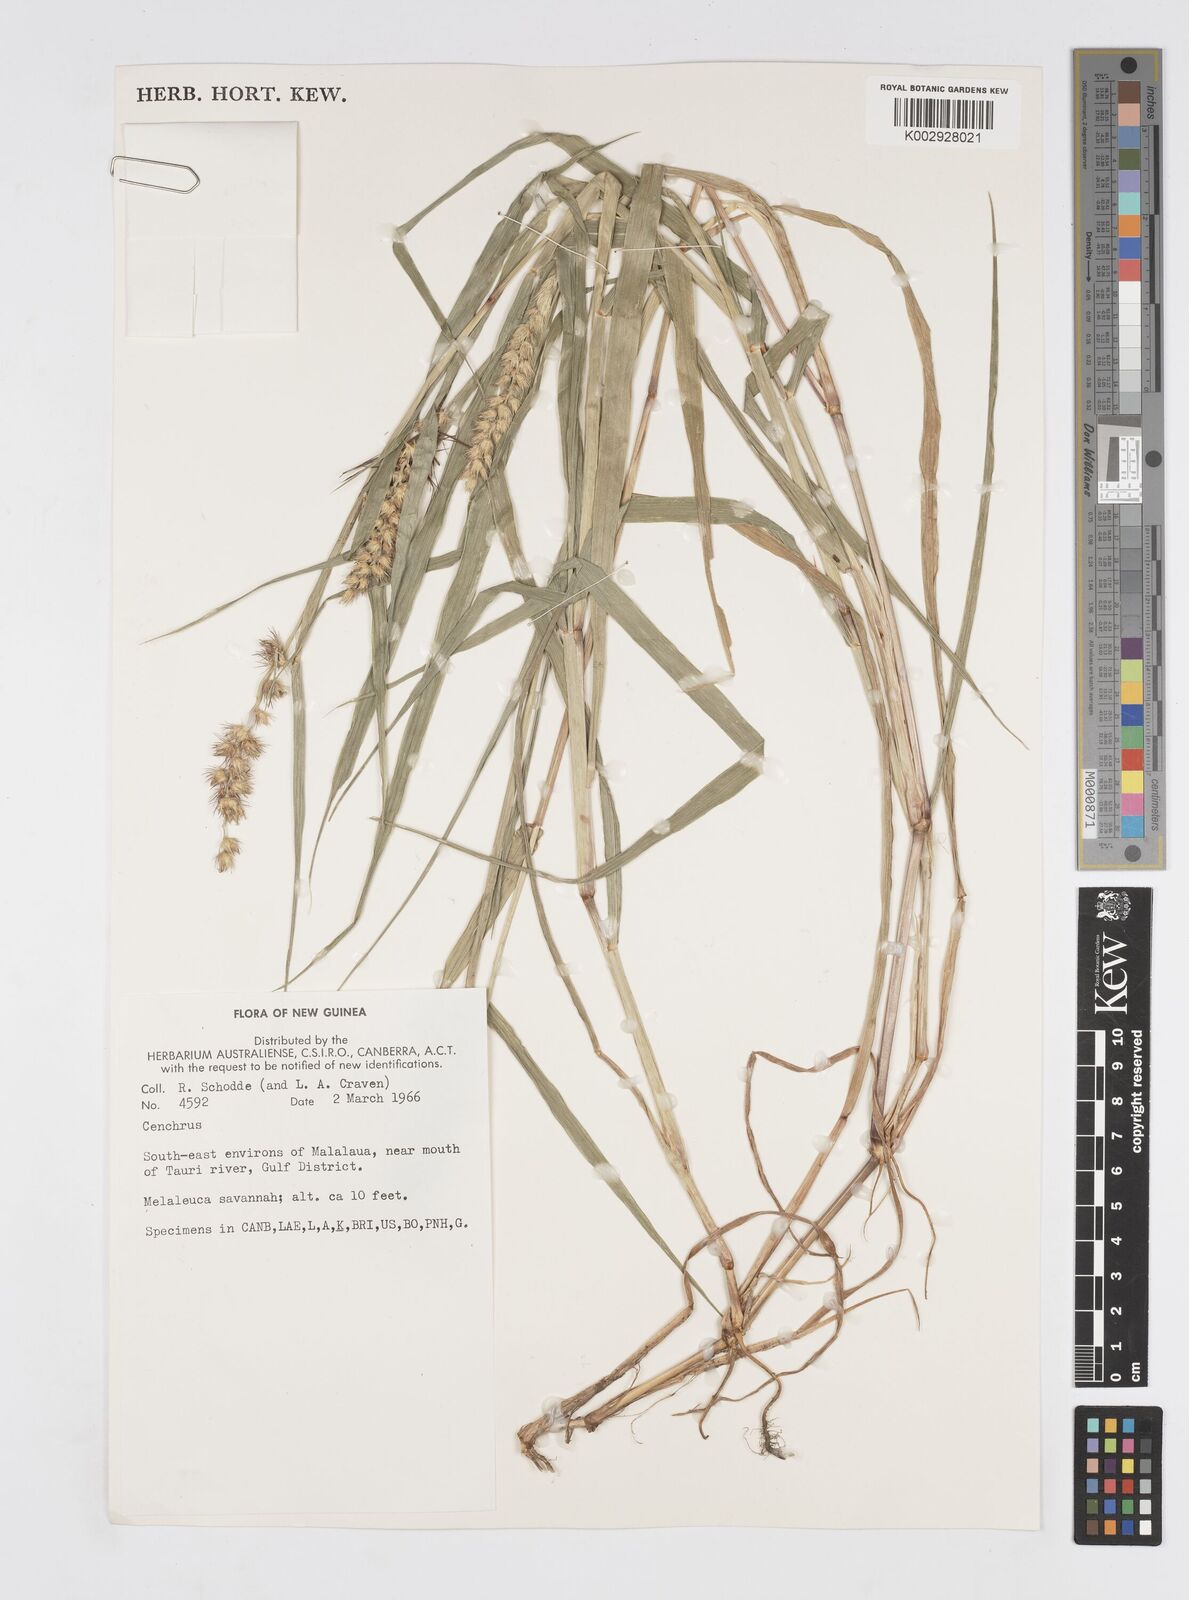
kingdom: Plantae
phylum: Tracheophyta
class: Liliopsida
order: Poales
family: Poaceae
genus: Cenchrus
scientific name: Cenchrus brownii
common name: Slim-bristle sandbur
